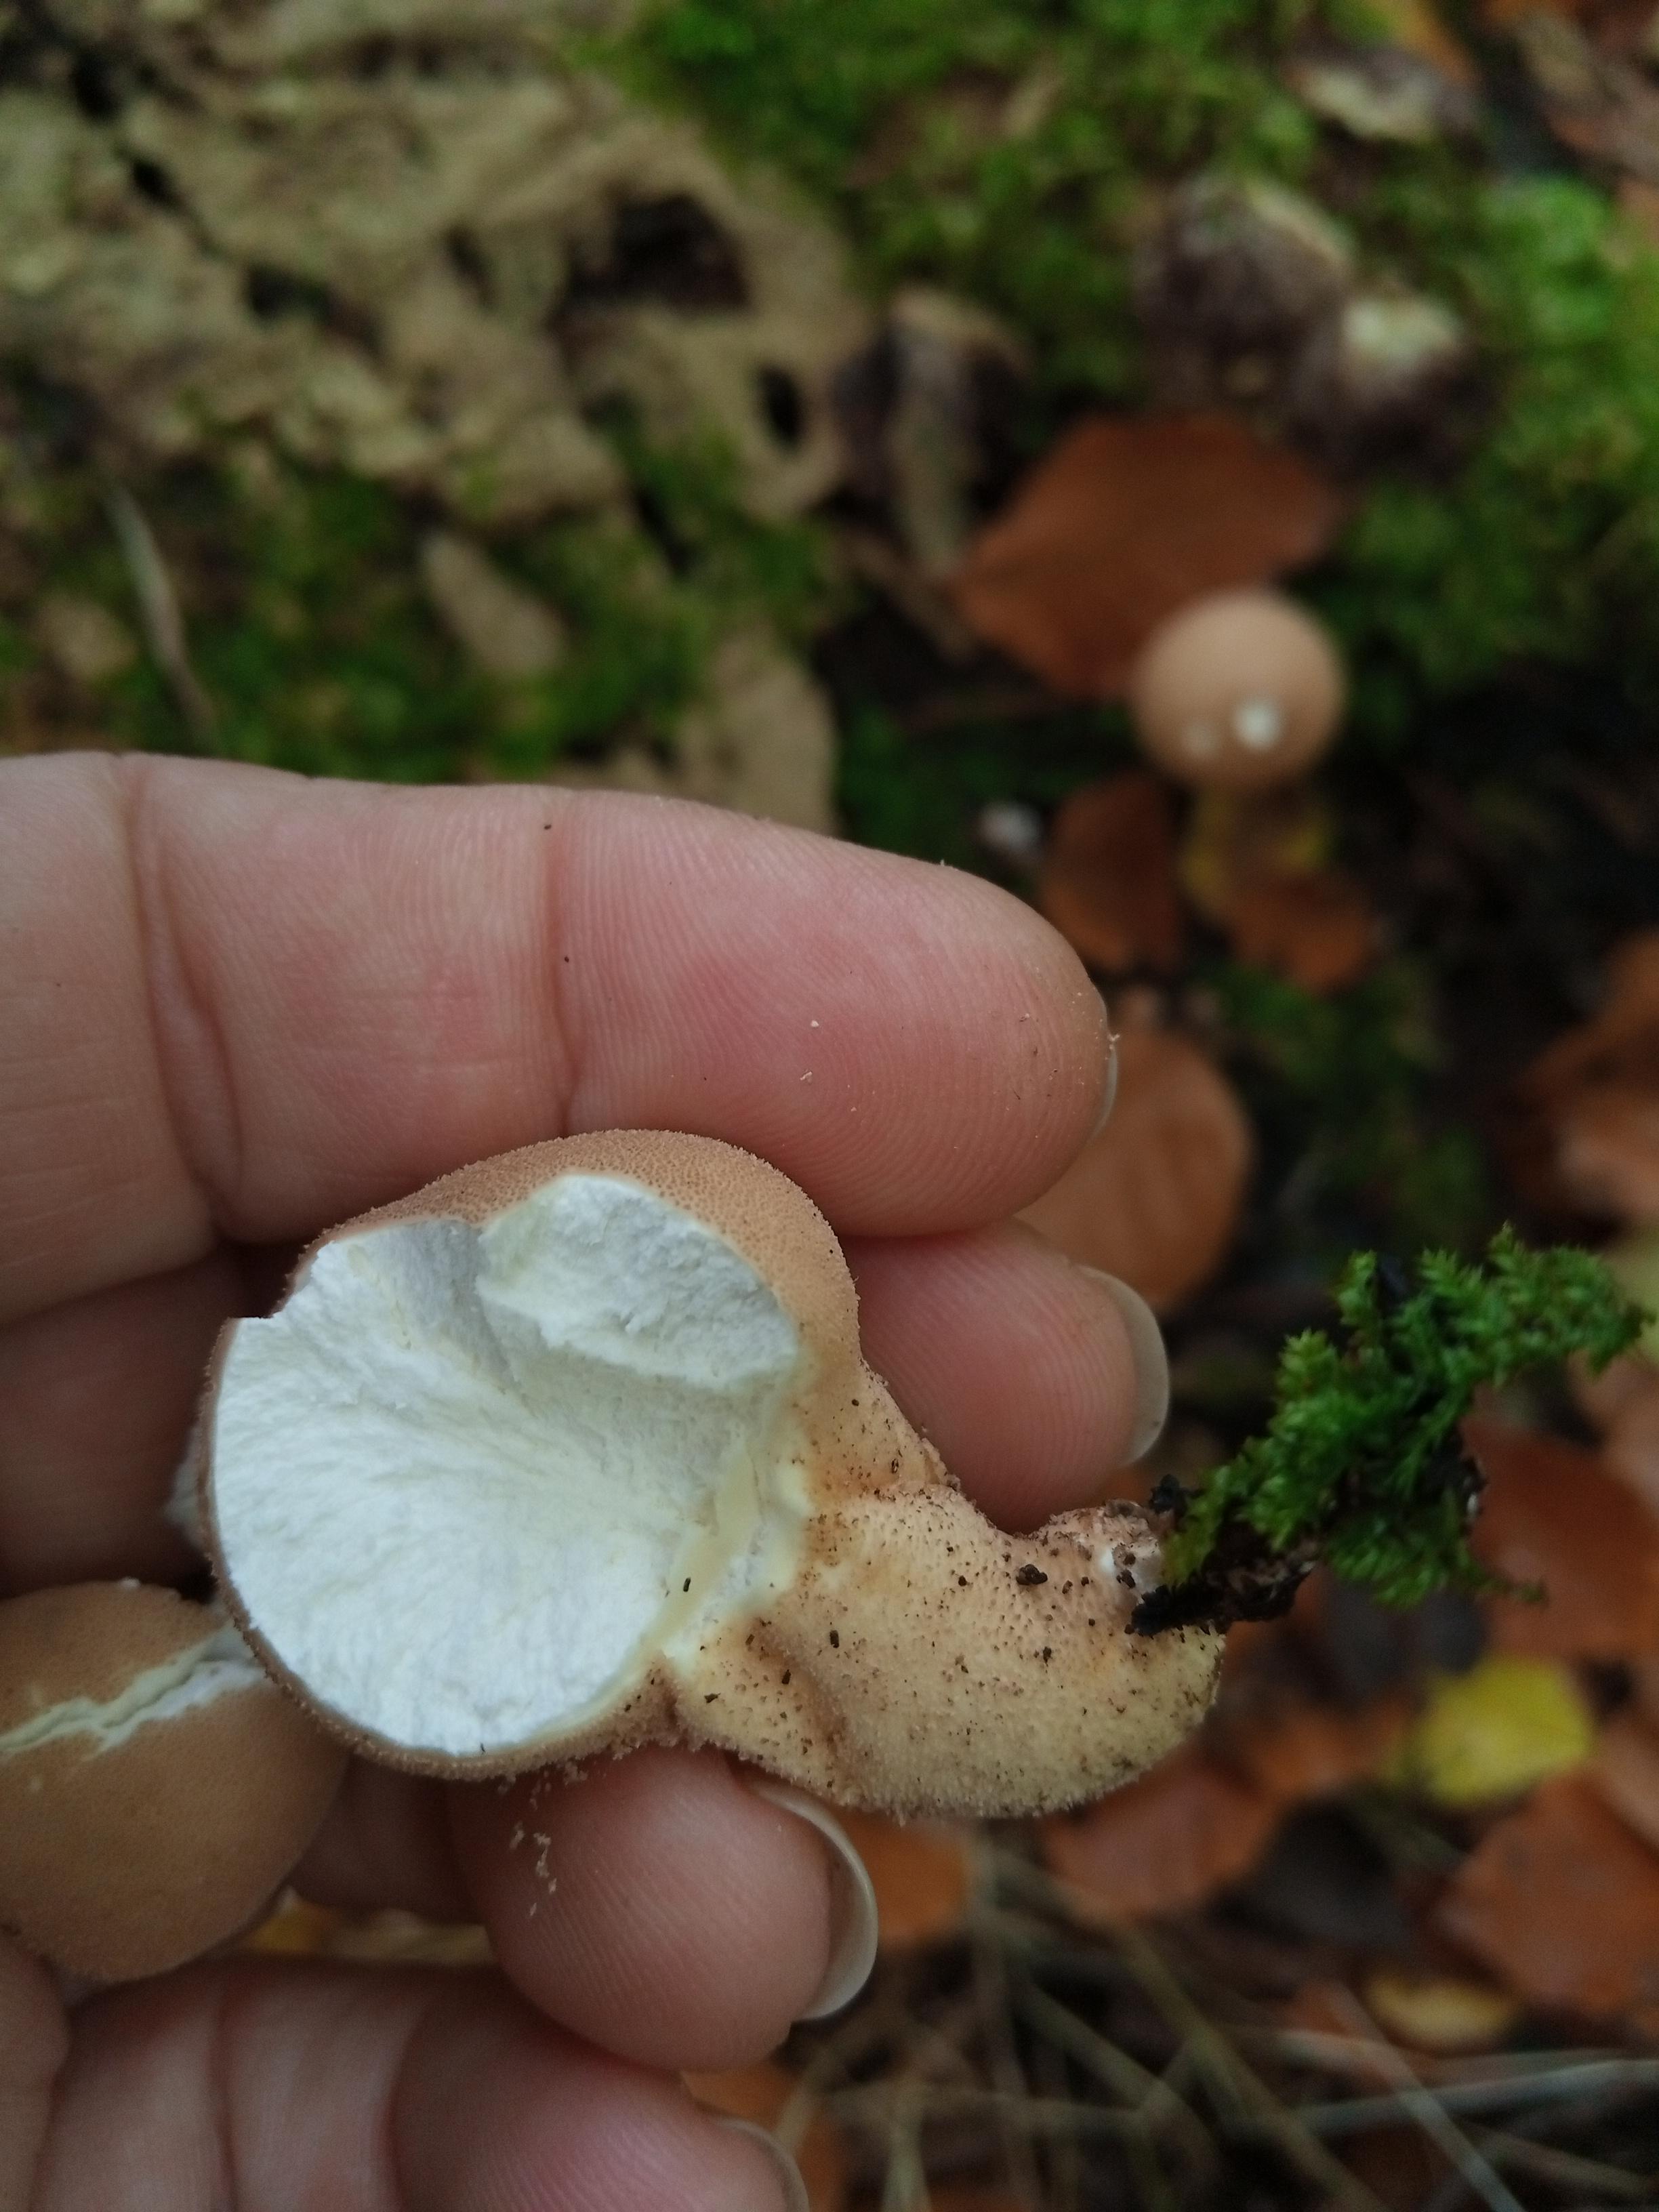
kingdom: Fungi
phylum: Basidiomycota
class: Agaricomycetes
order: Agaricales
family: Lycoperdaceae
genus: Apioperdon
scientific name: Apioperdon pyriforme
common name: pære-støvbold
